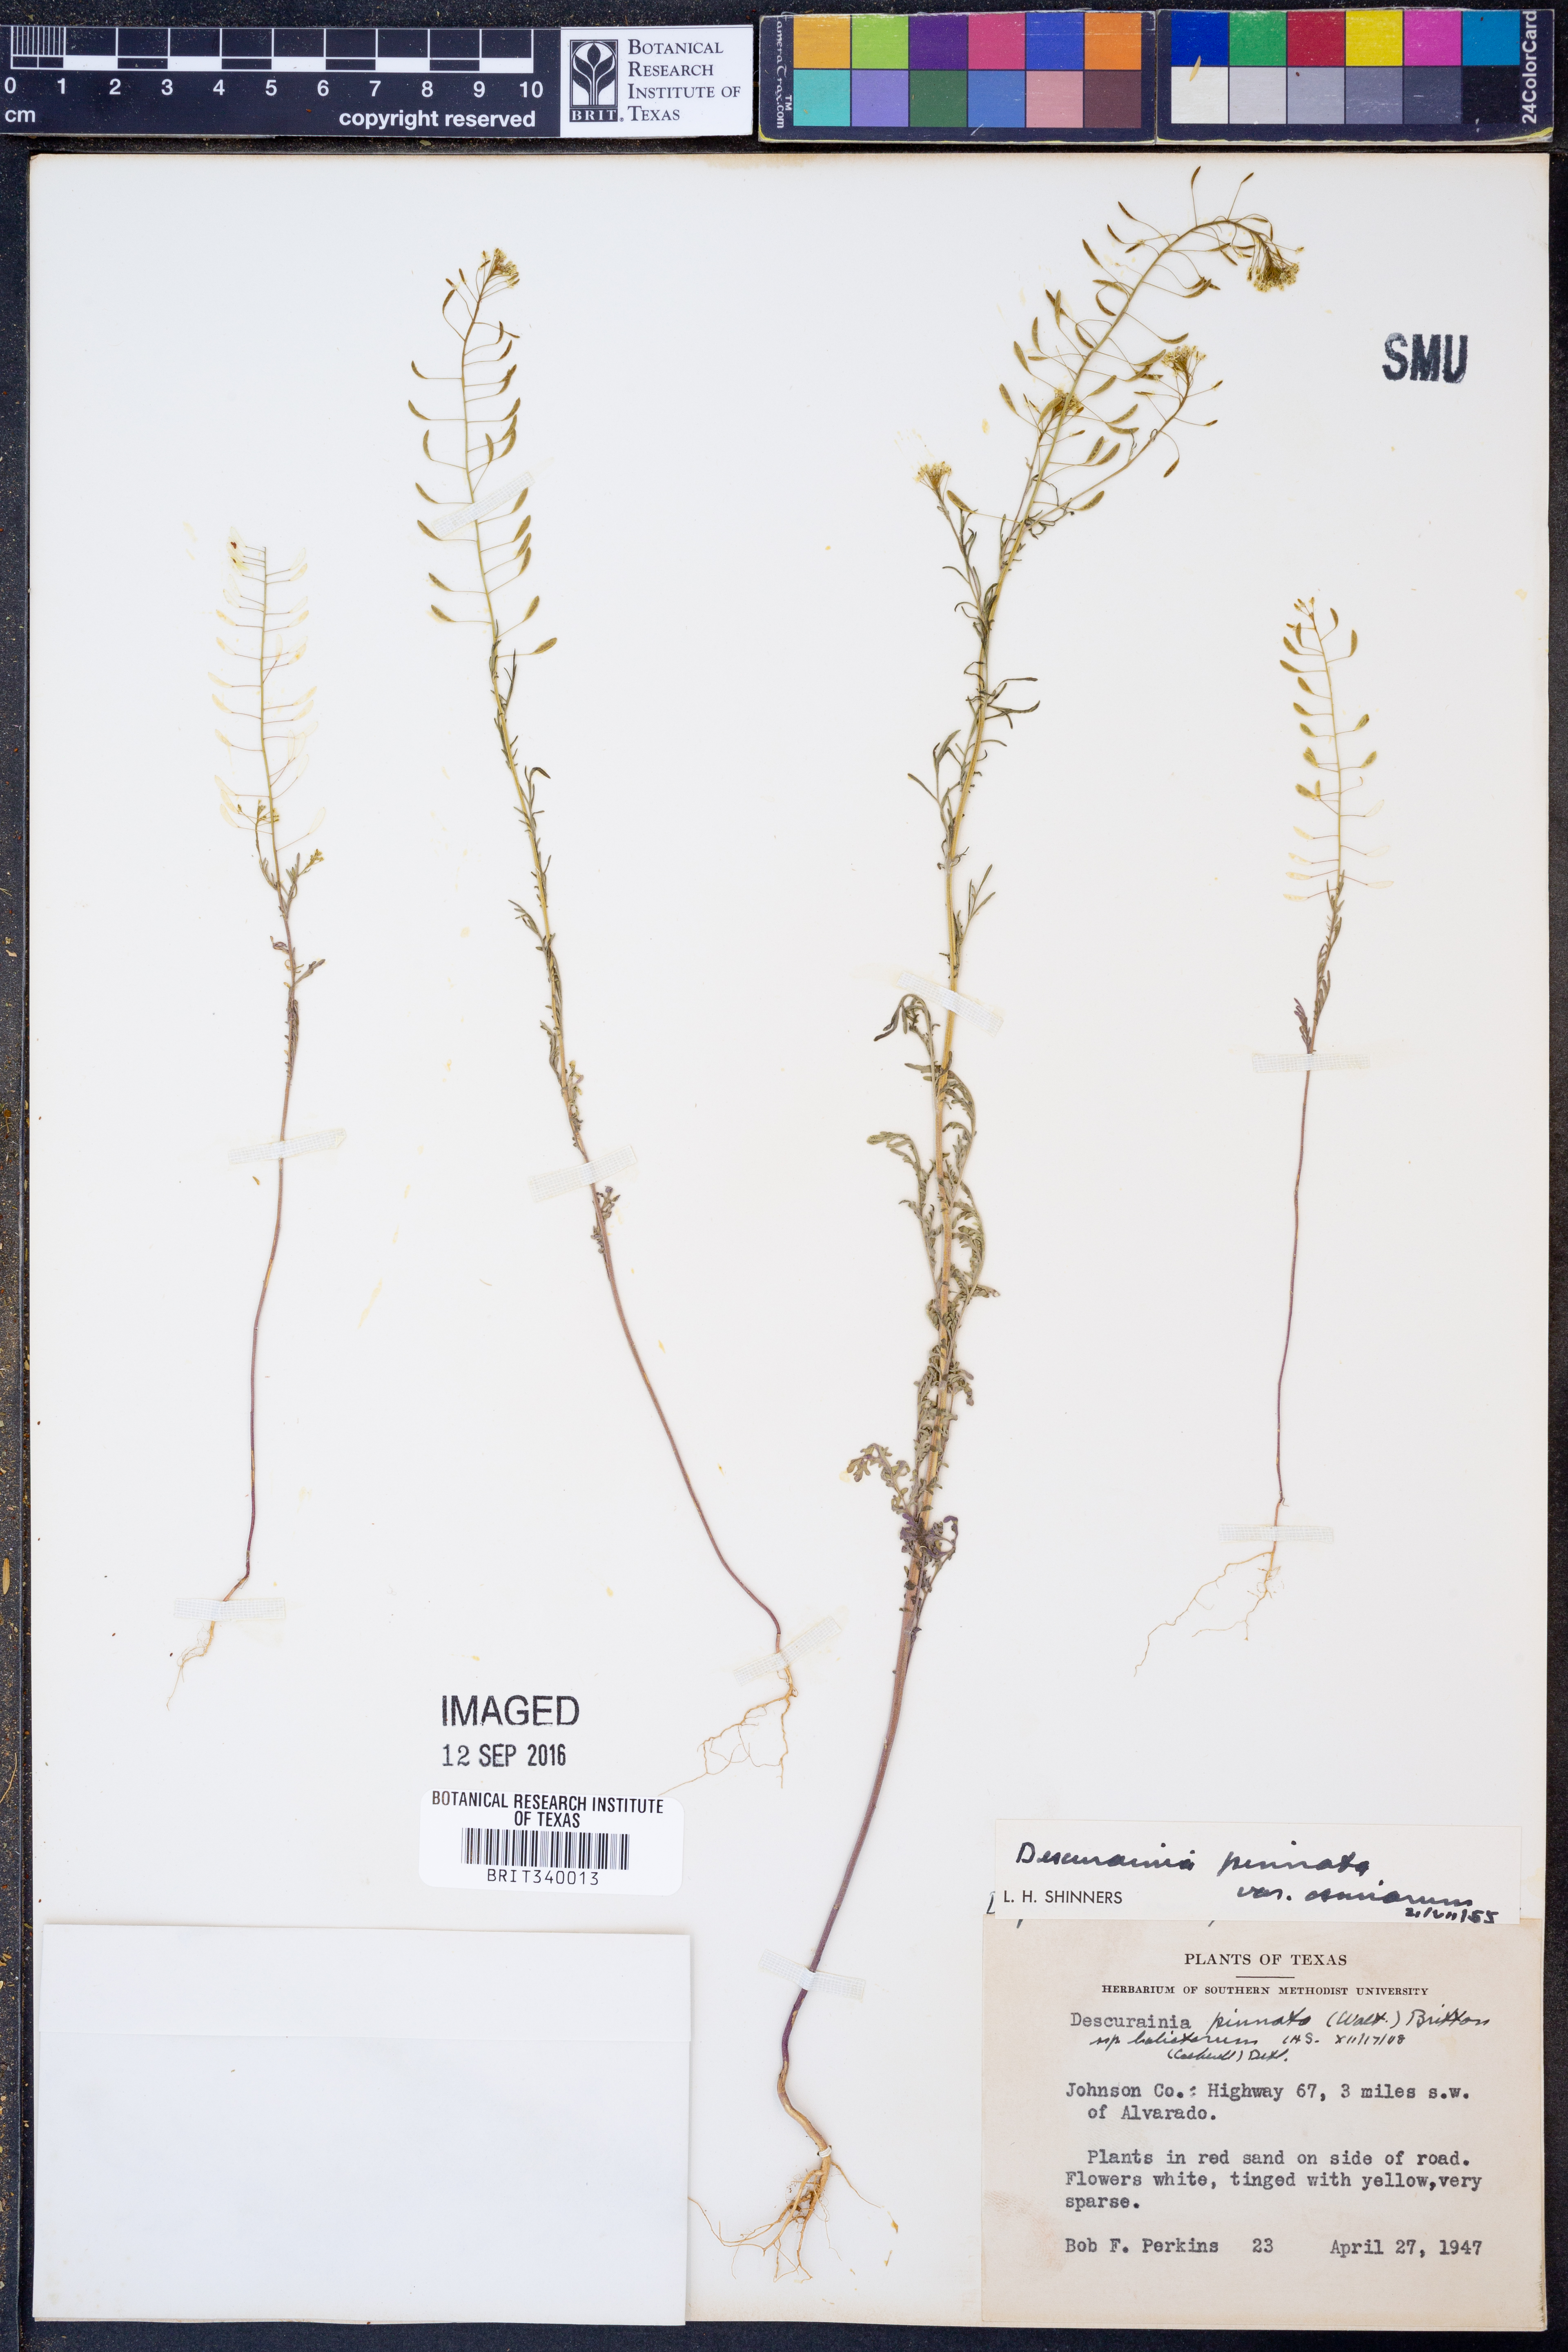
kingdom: Plantae
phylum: Tracheophyta
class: Magnoliopsida
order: Brassicales
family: Brassicaceae
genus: Descurainia
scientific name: Descurainia pinnata
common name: Western tansy mustard
